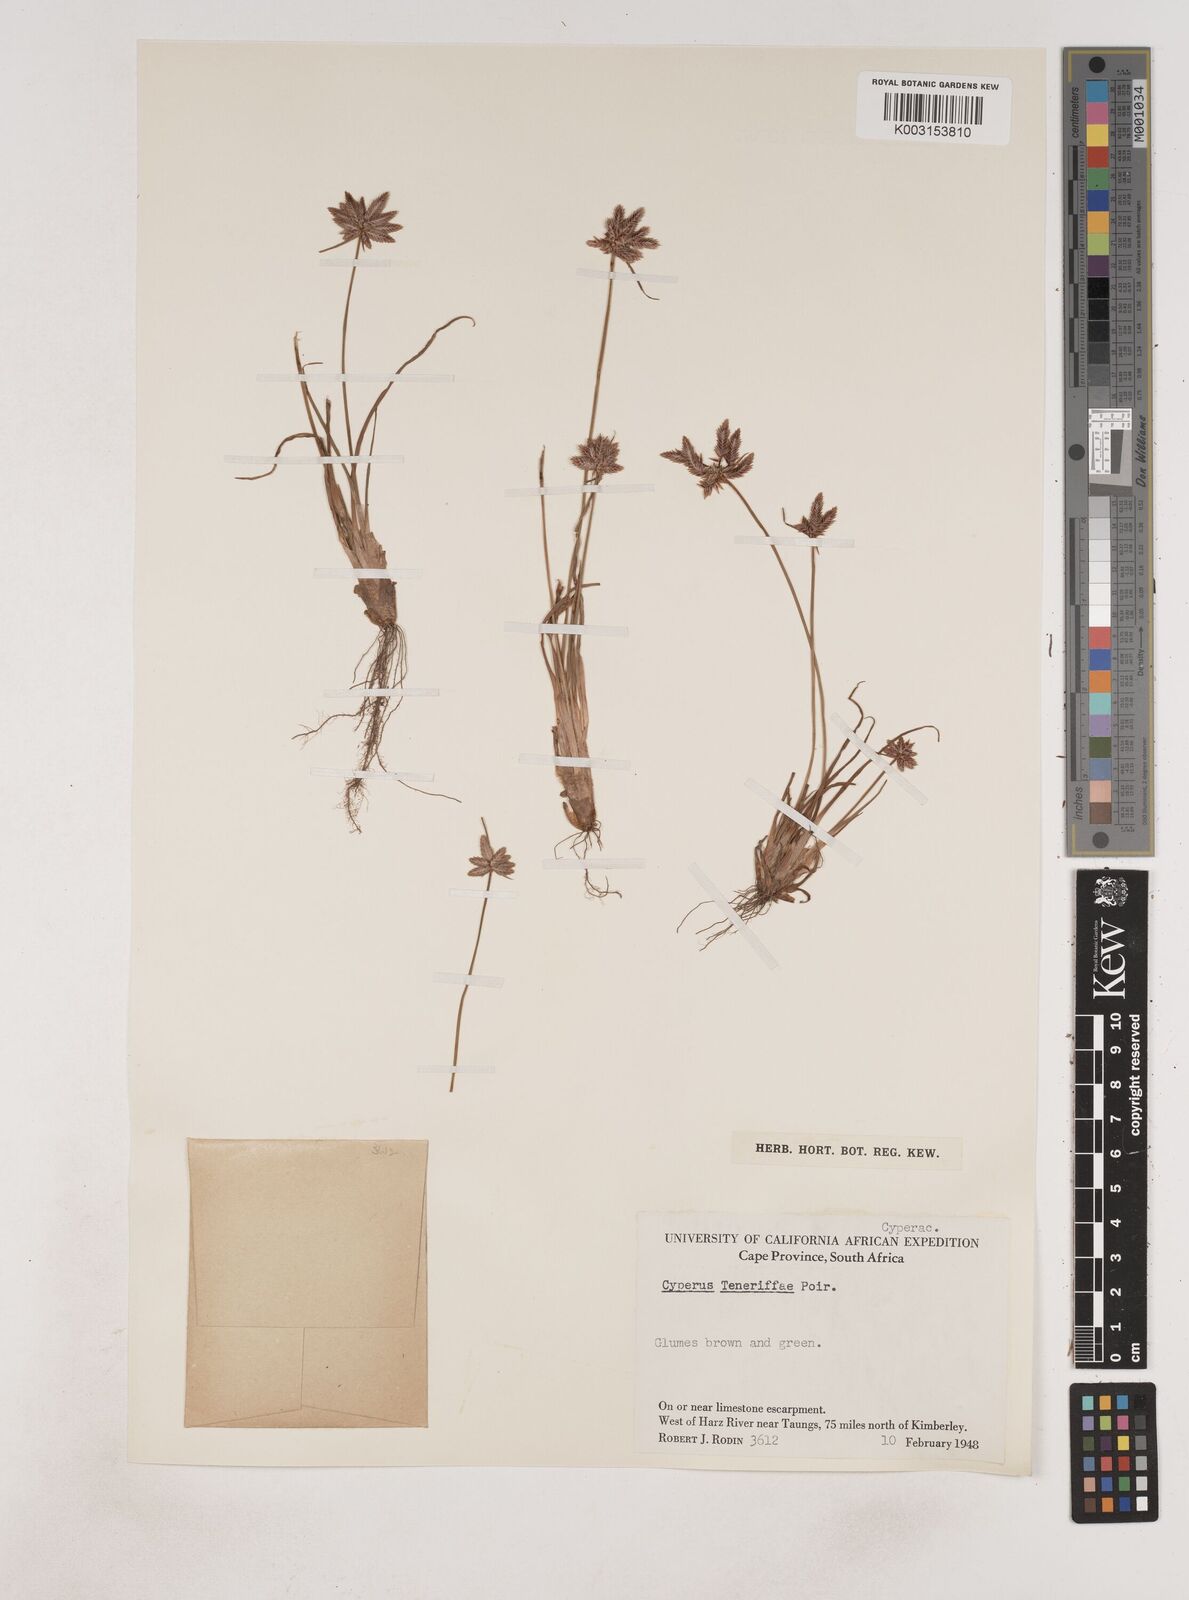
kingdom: Plantae
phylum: Tracheophyta
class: Liliopsida
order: Poales
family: Cyperaceae
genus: Cyperus
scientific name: Cyperus rubicundus
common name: Coco-grass
